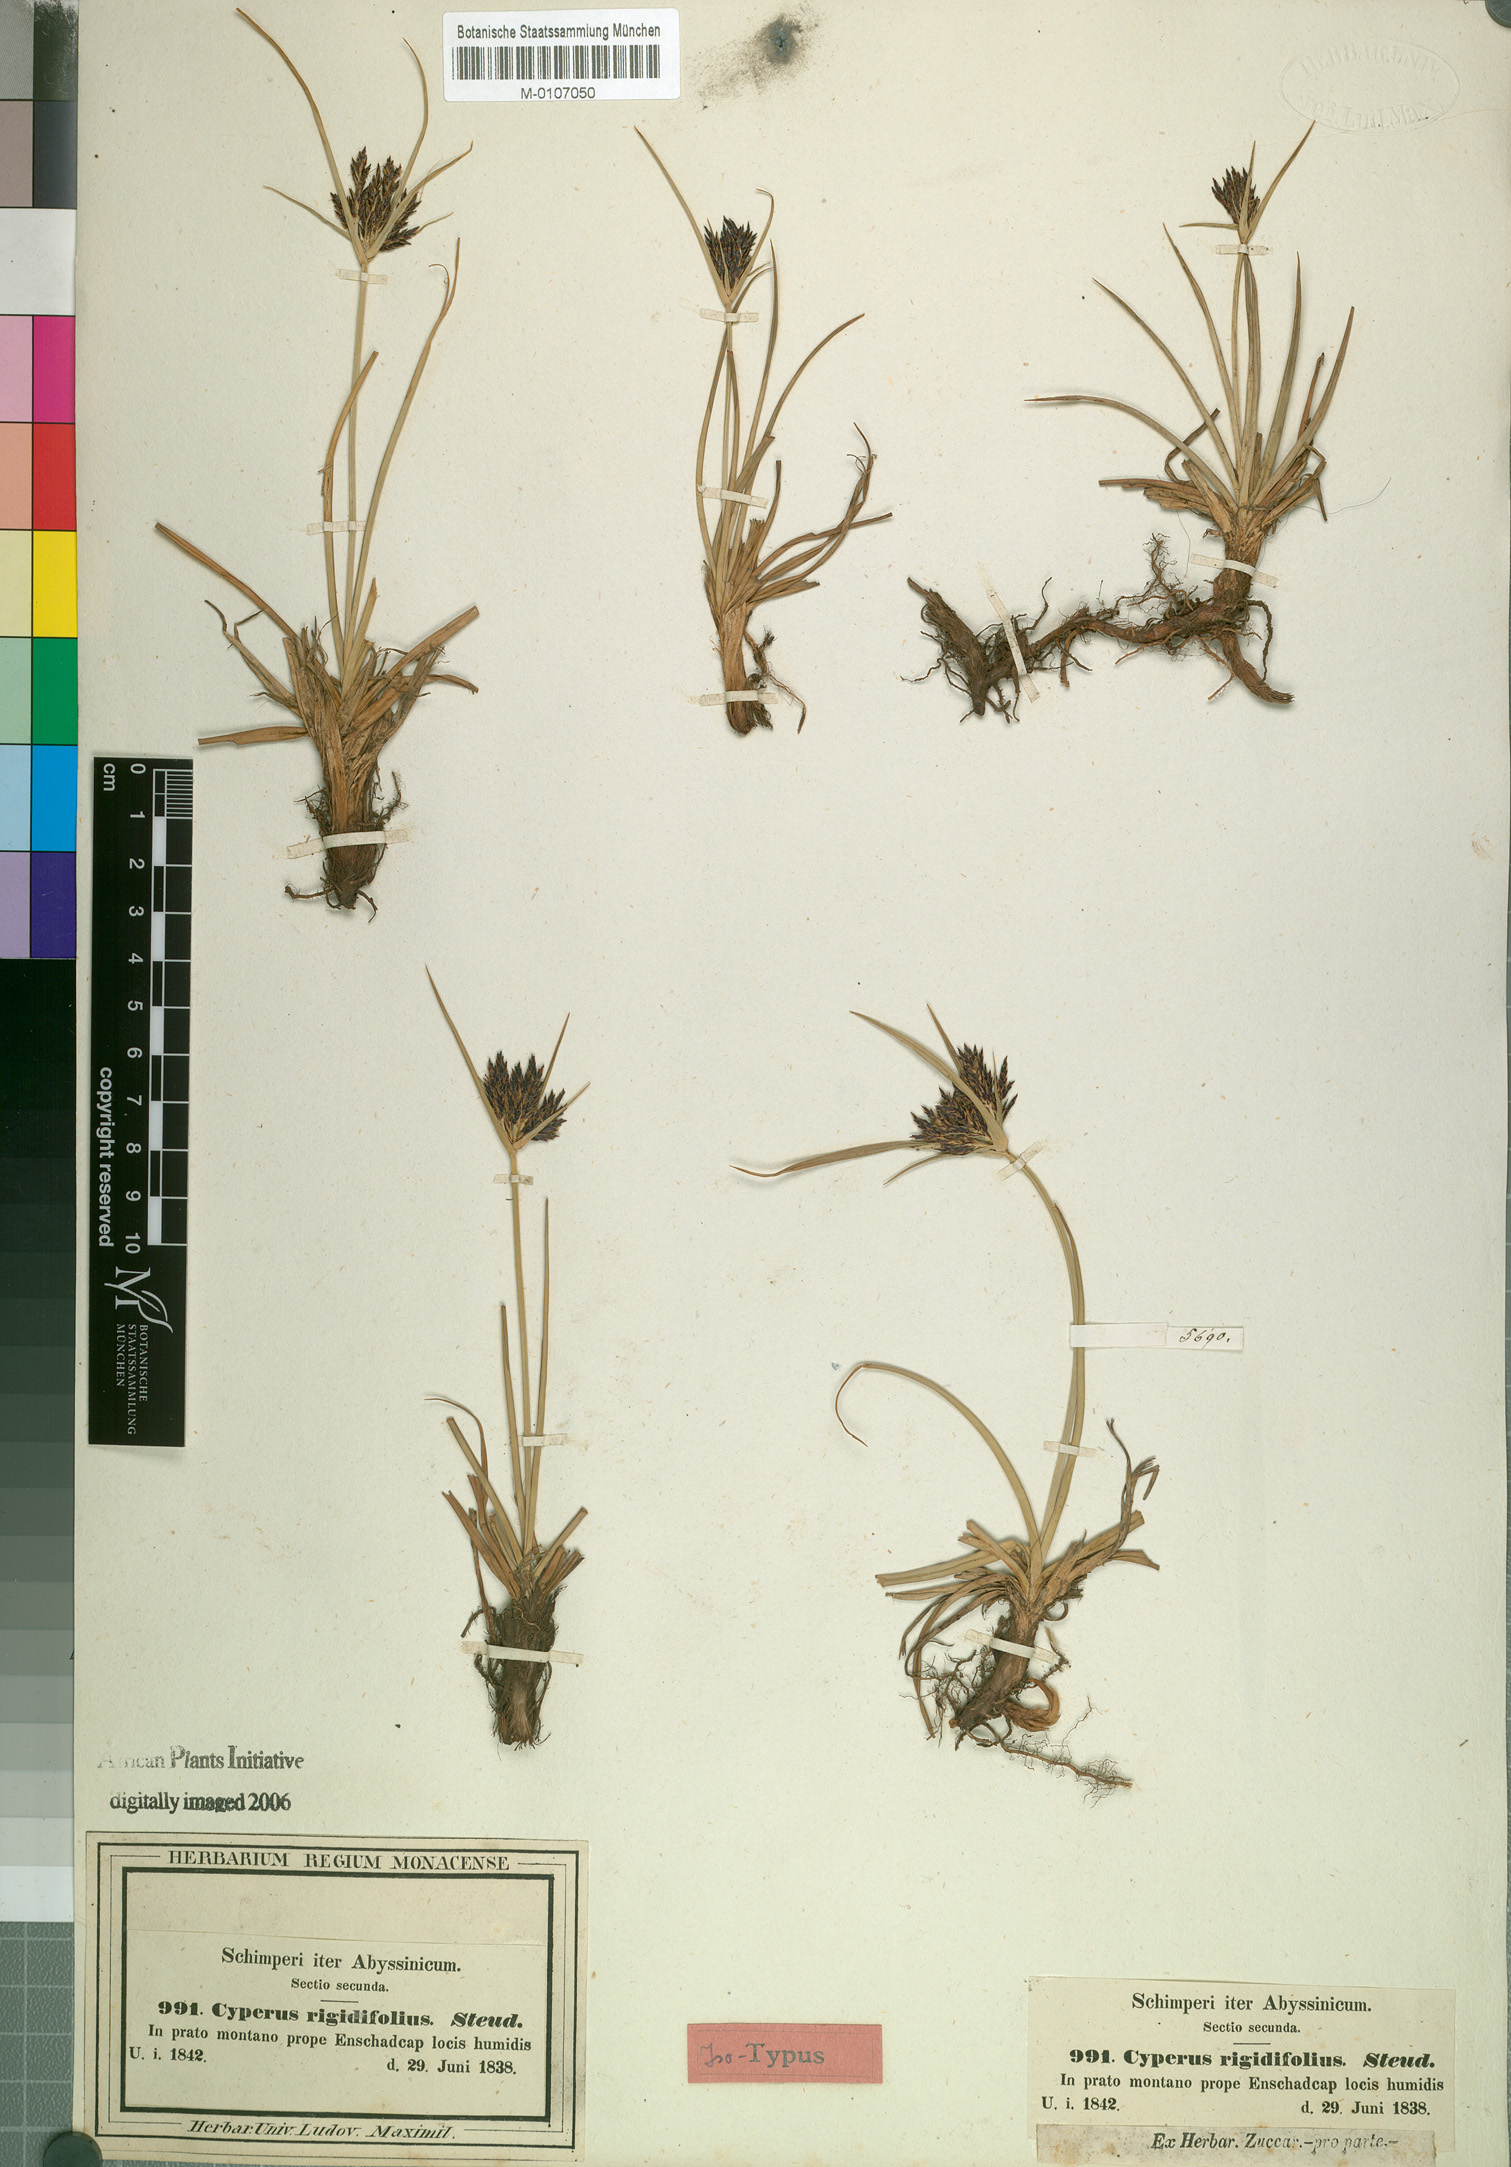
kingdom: Plantae
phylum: Tracheophyta
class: Liliopsida
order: Poales
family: Cyperaceae
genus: Cyperus
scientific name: Cyperus rigidifolius
